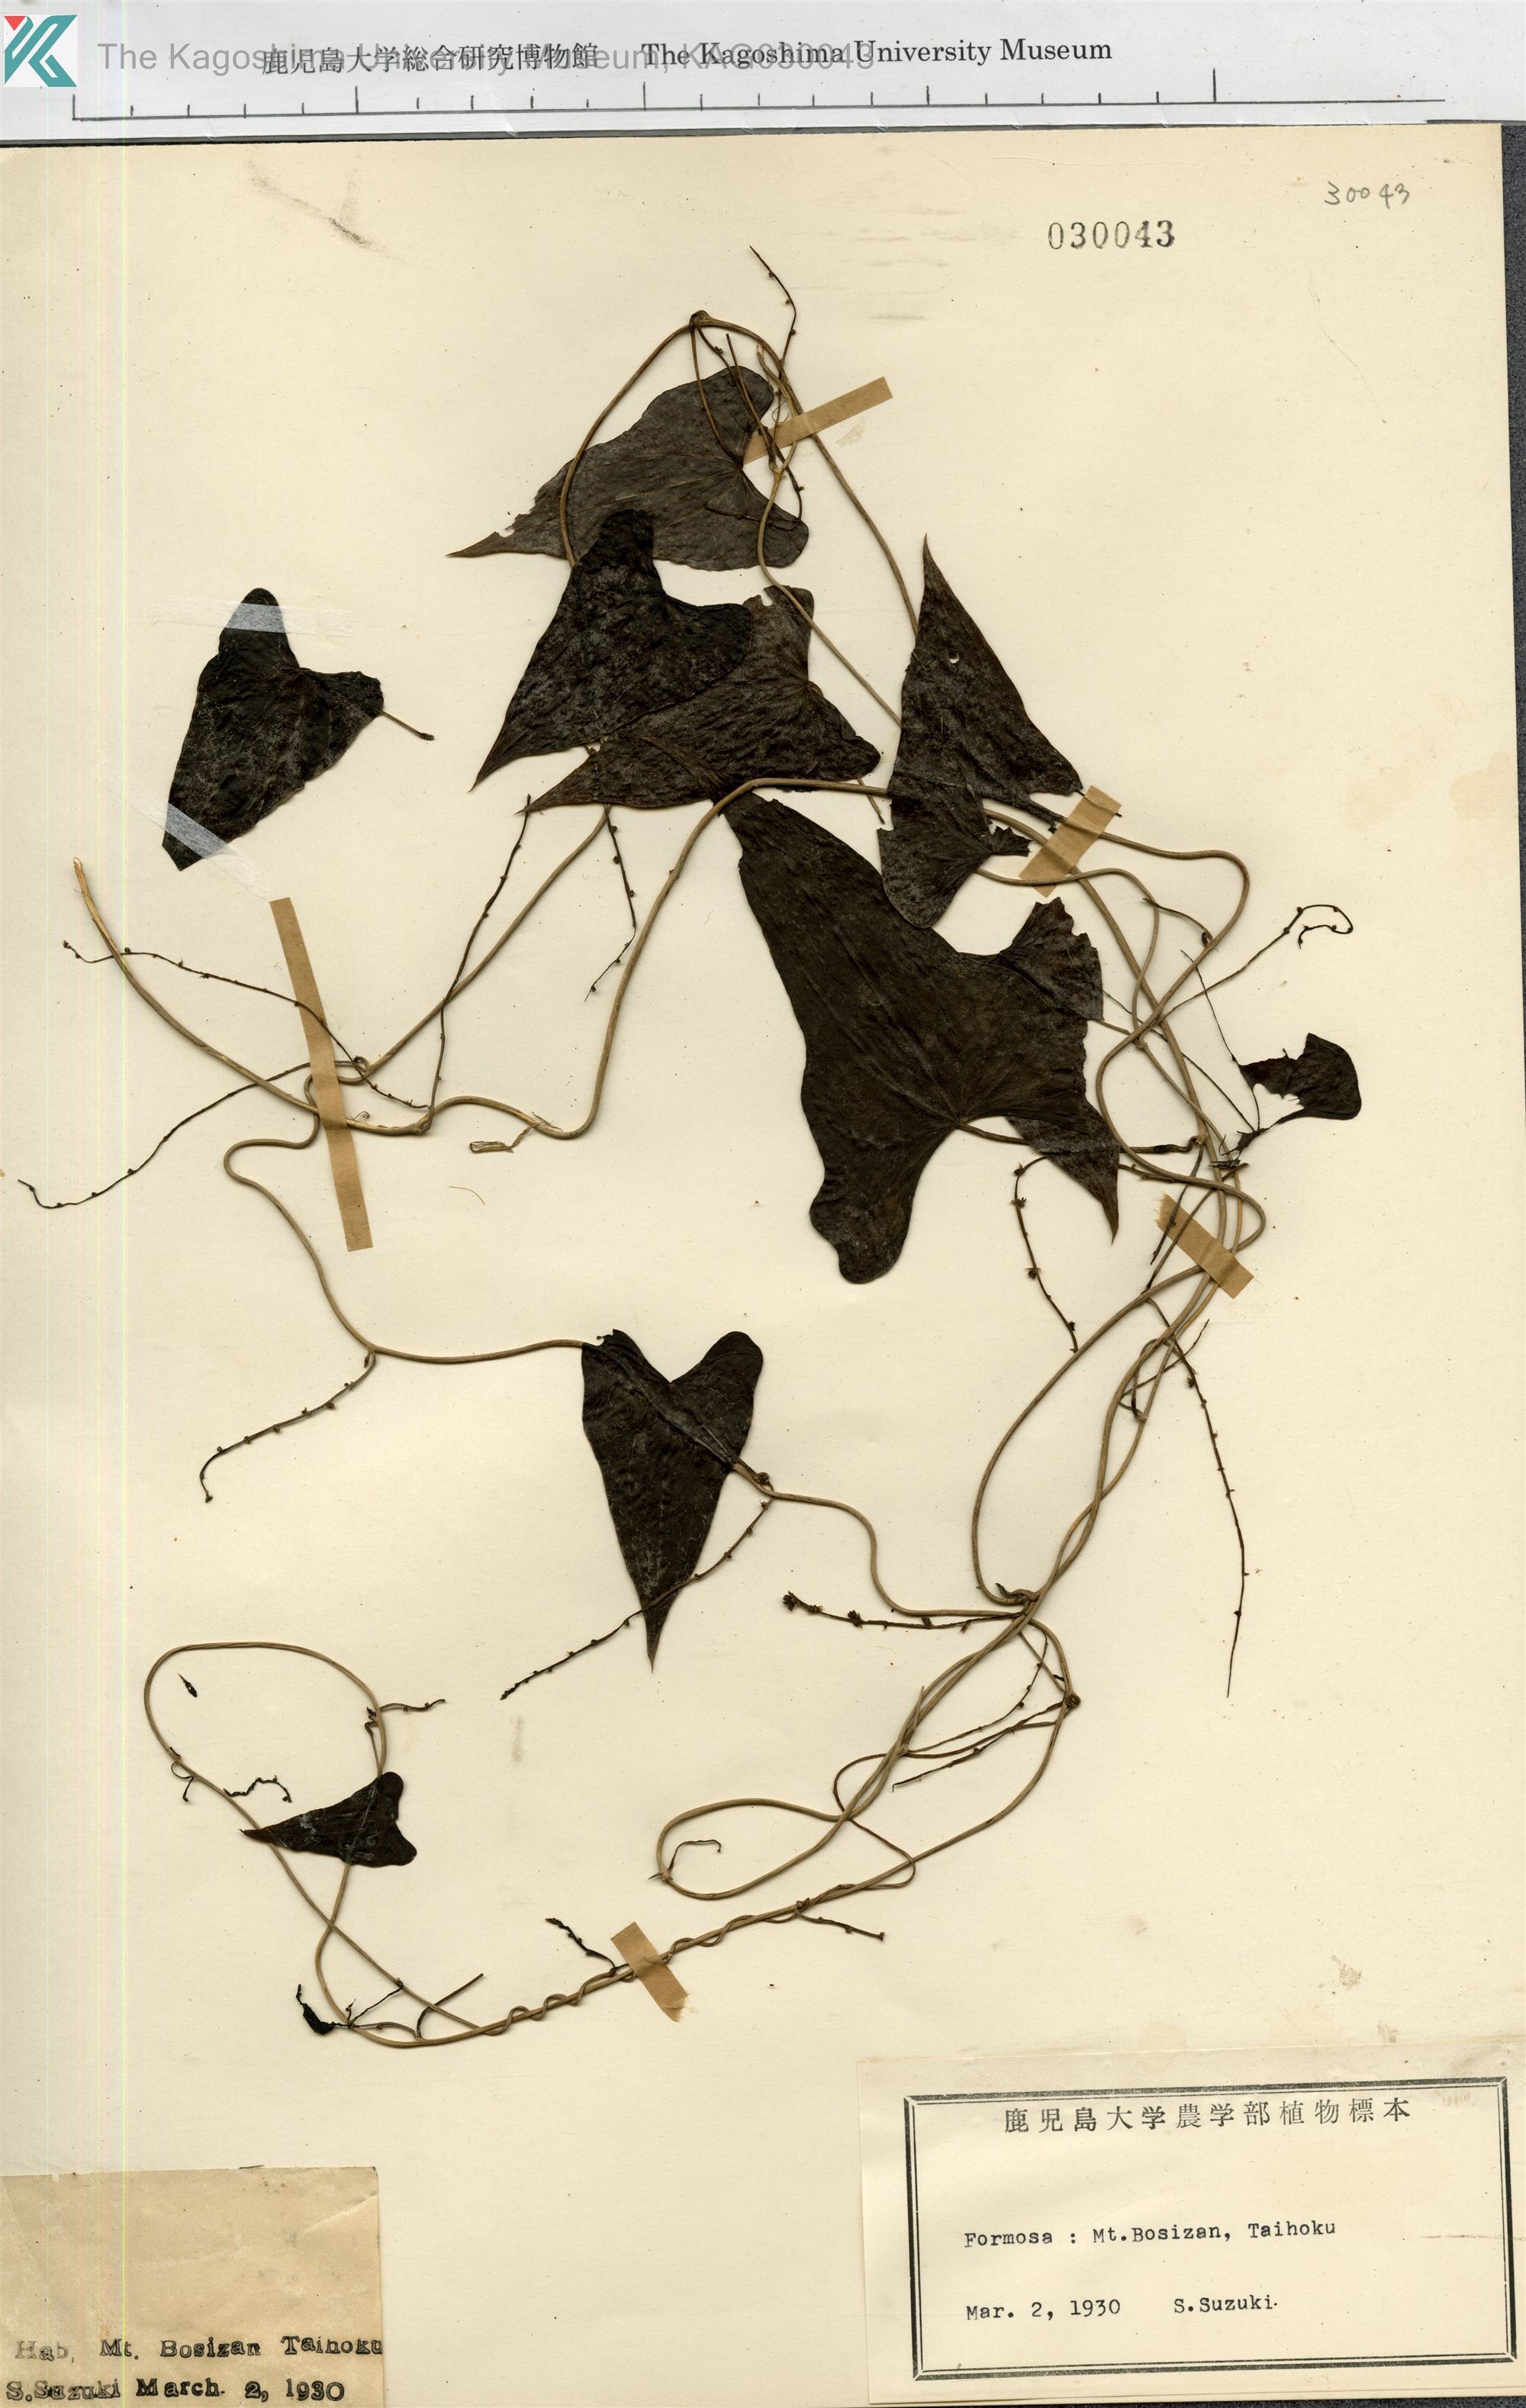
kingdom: Plantae
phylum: Tracheophyta
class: Liliopsida
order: Dioscoreales
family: Dioscoreaceae
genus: Dioscorea
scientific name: Dioscorea
